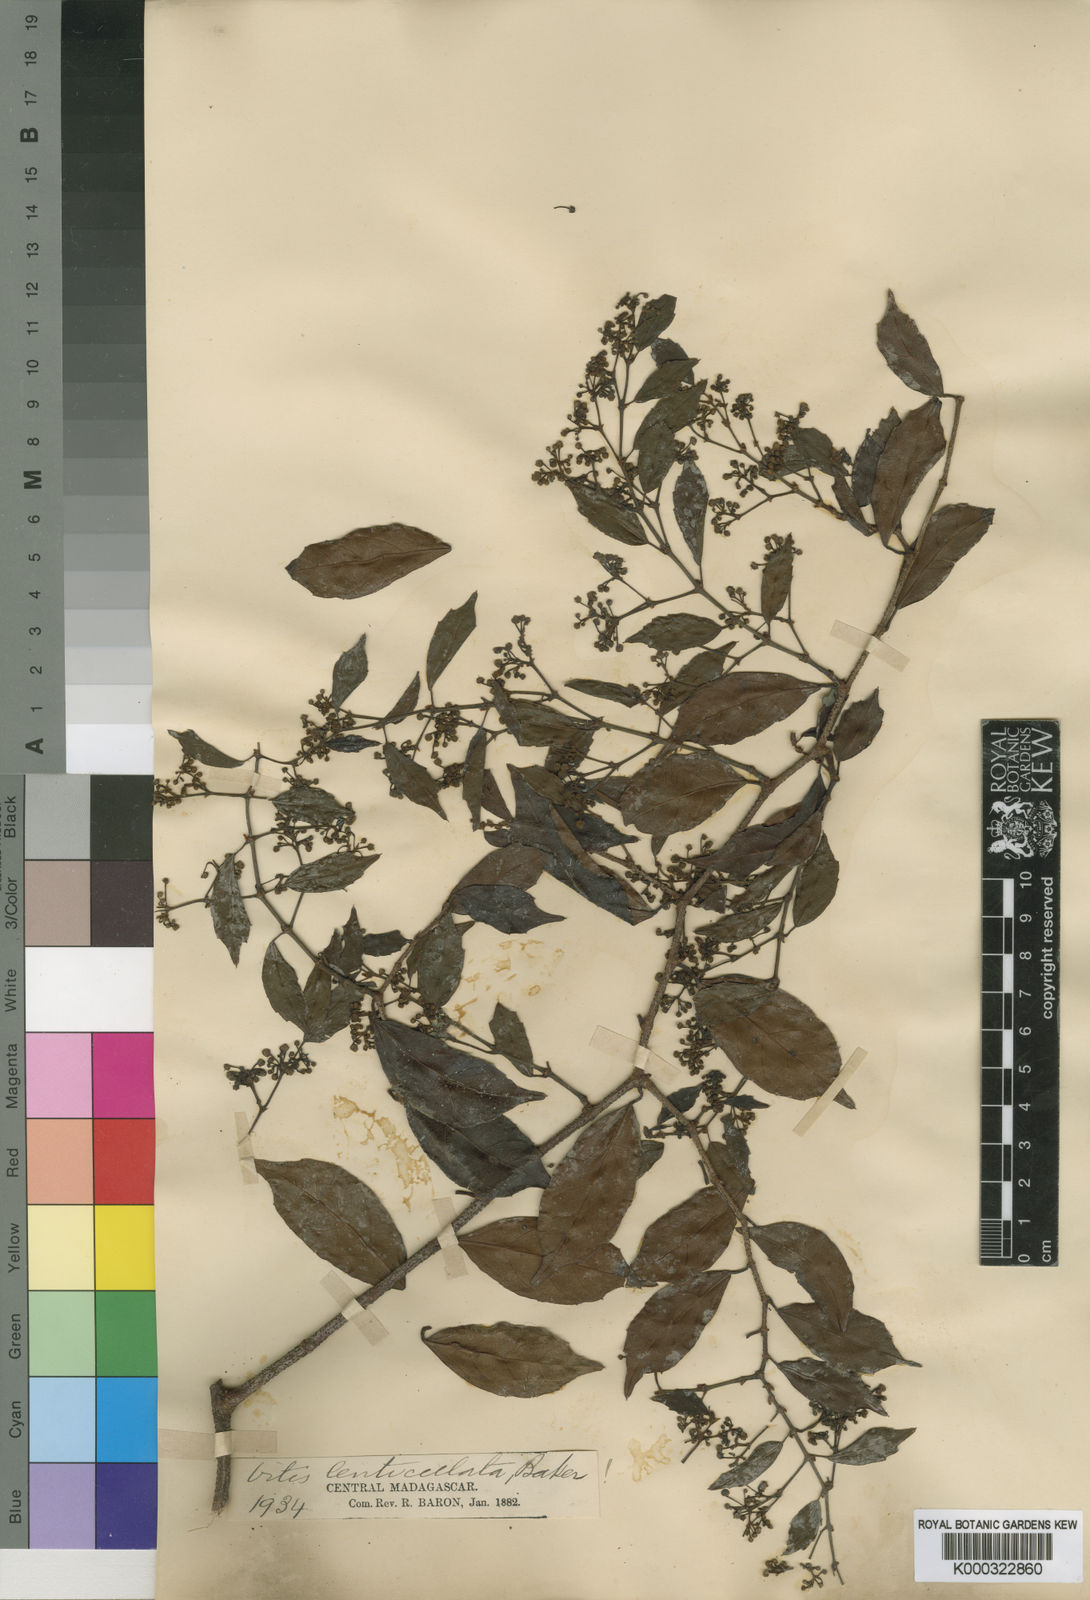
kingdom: Plantae
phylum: Tracheophyta
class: Magnoliopsida
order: Vitales
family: Vitaceae
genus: Cissus
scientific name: Cissus floribunda
